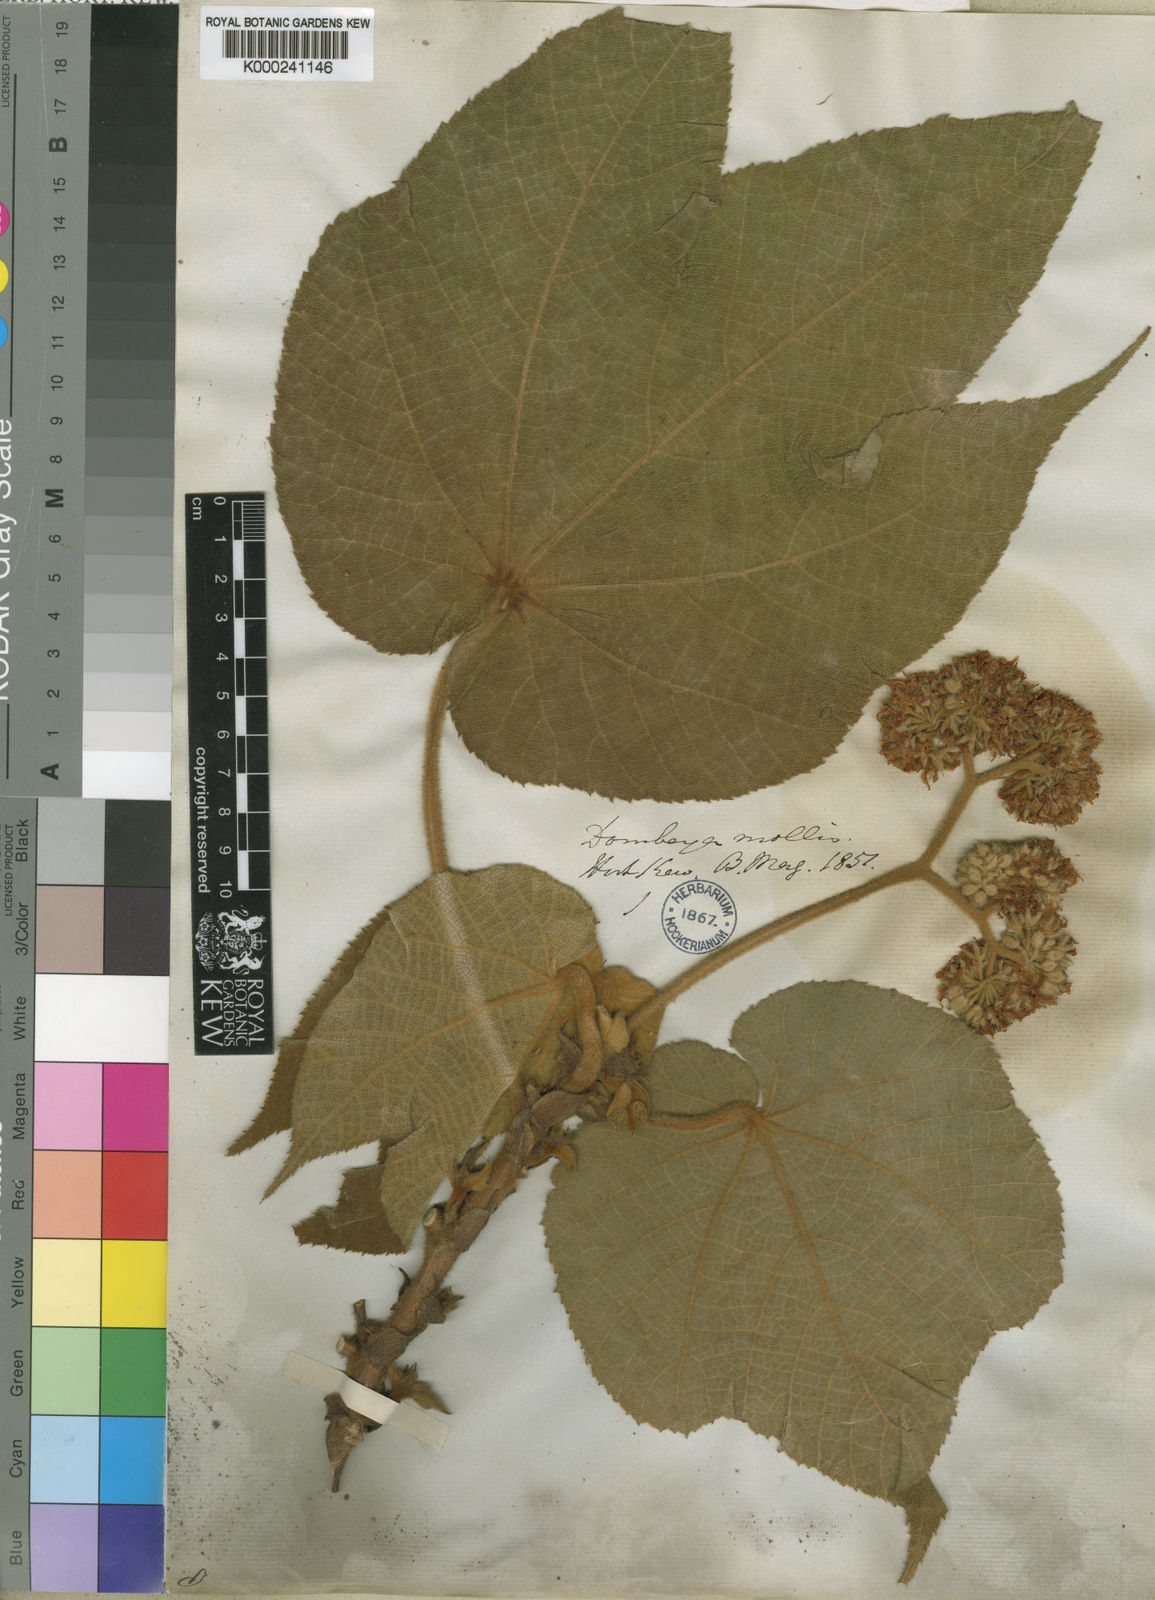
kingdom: Plantae
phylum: Tracheophyta
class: Magnoliopsida
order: Malvales
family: Malvaceae
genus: Dombeya
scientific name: Dombeya mollis
